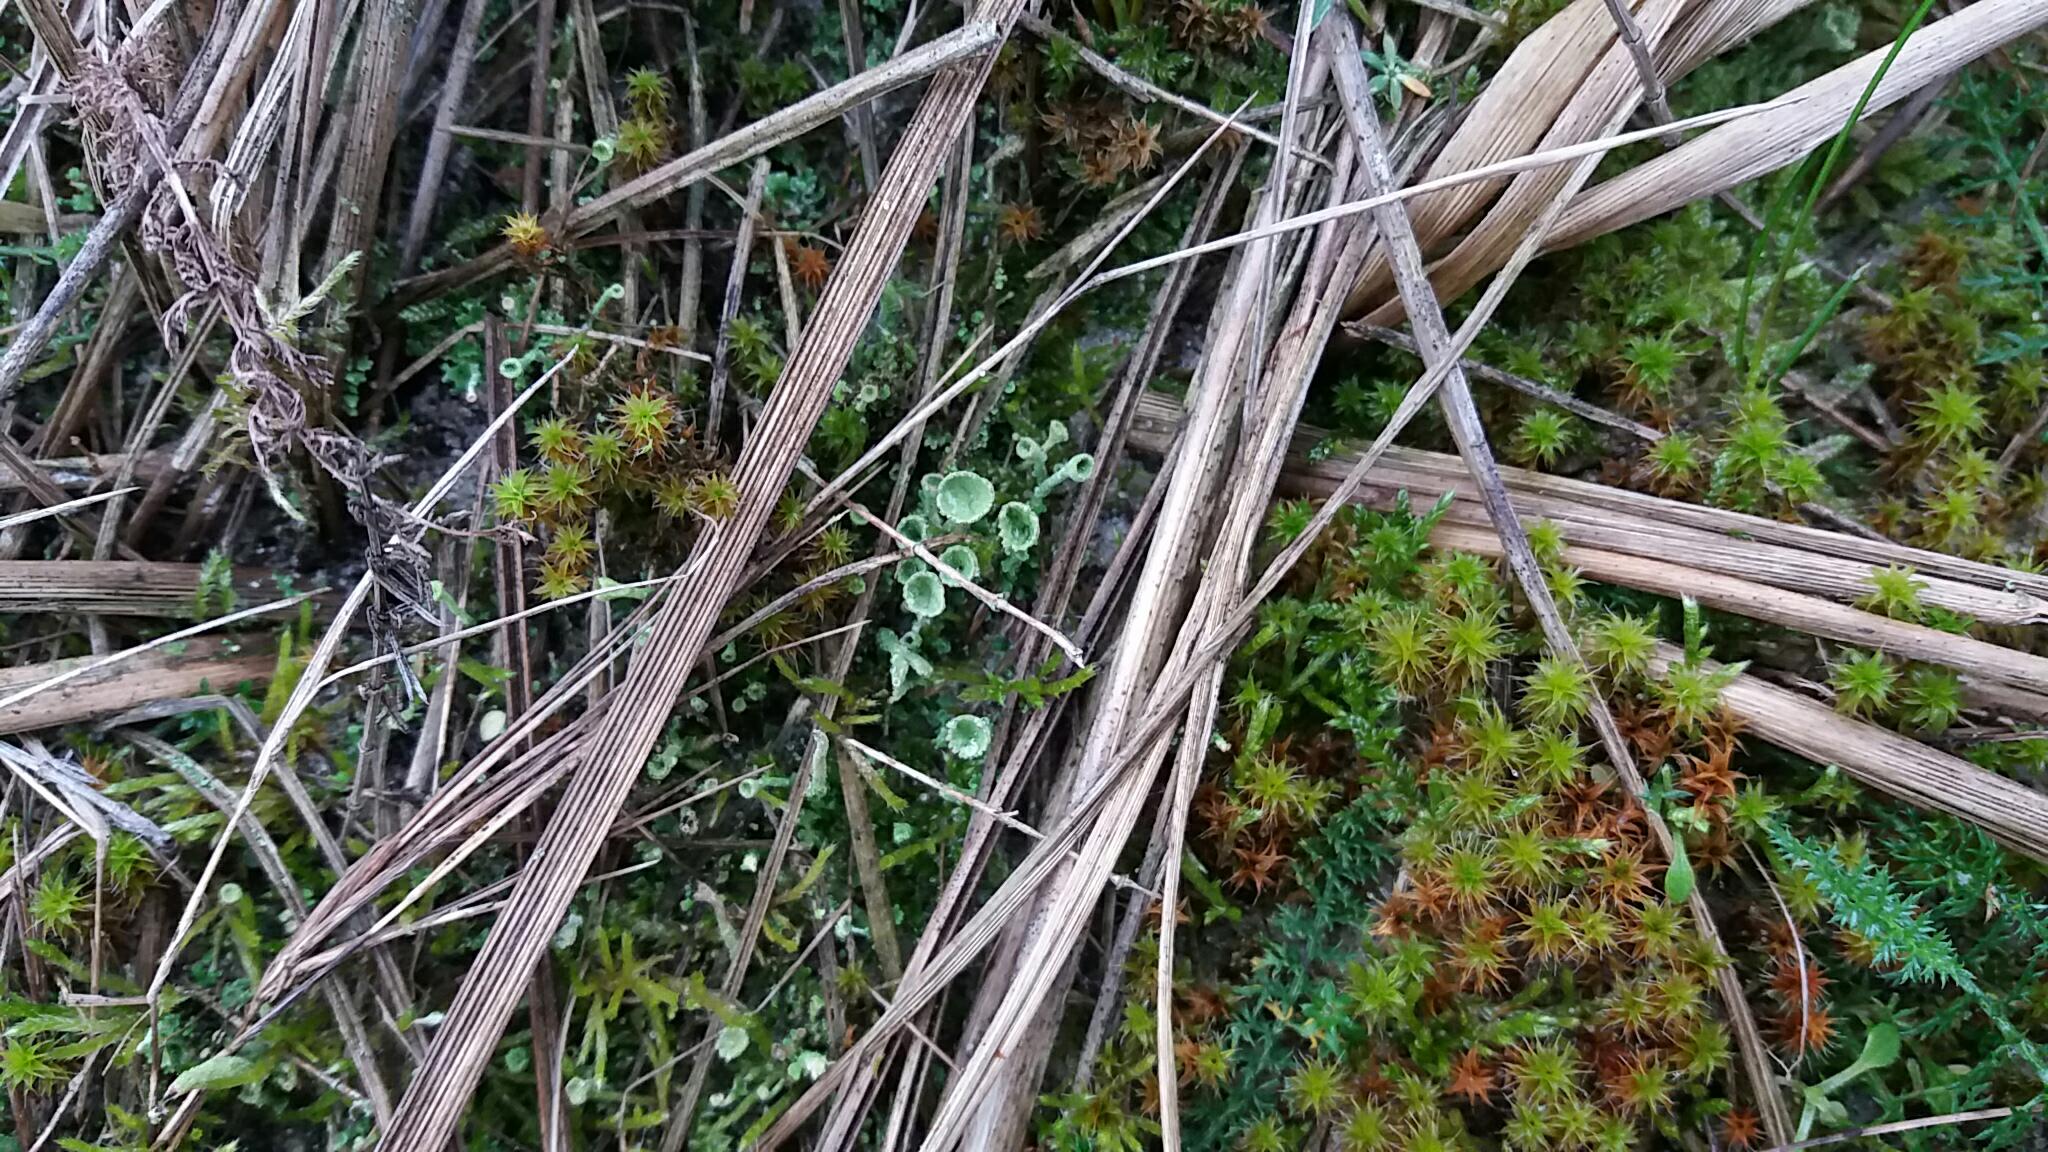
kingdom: Fungi
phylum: Ascomycota
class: Lecanoromycetes
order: Lecanorales
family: Cladoniaceae
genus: Cladonia
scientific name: Cladonia fimbriata
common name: bleggrøn bægerlav
